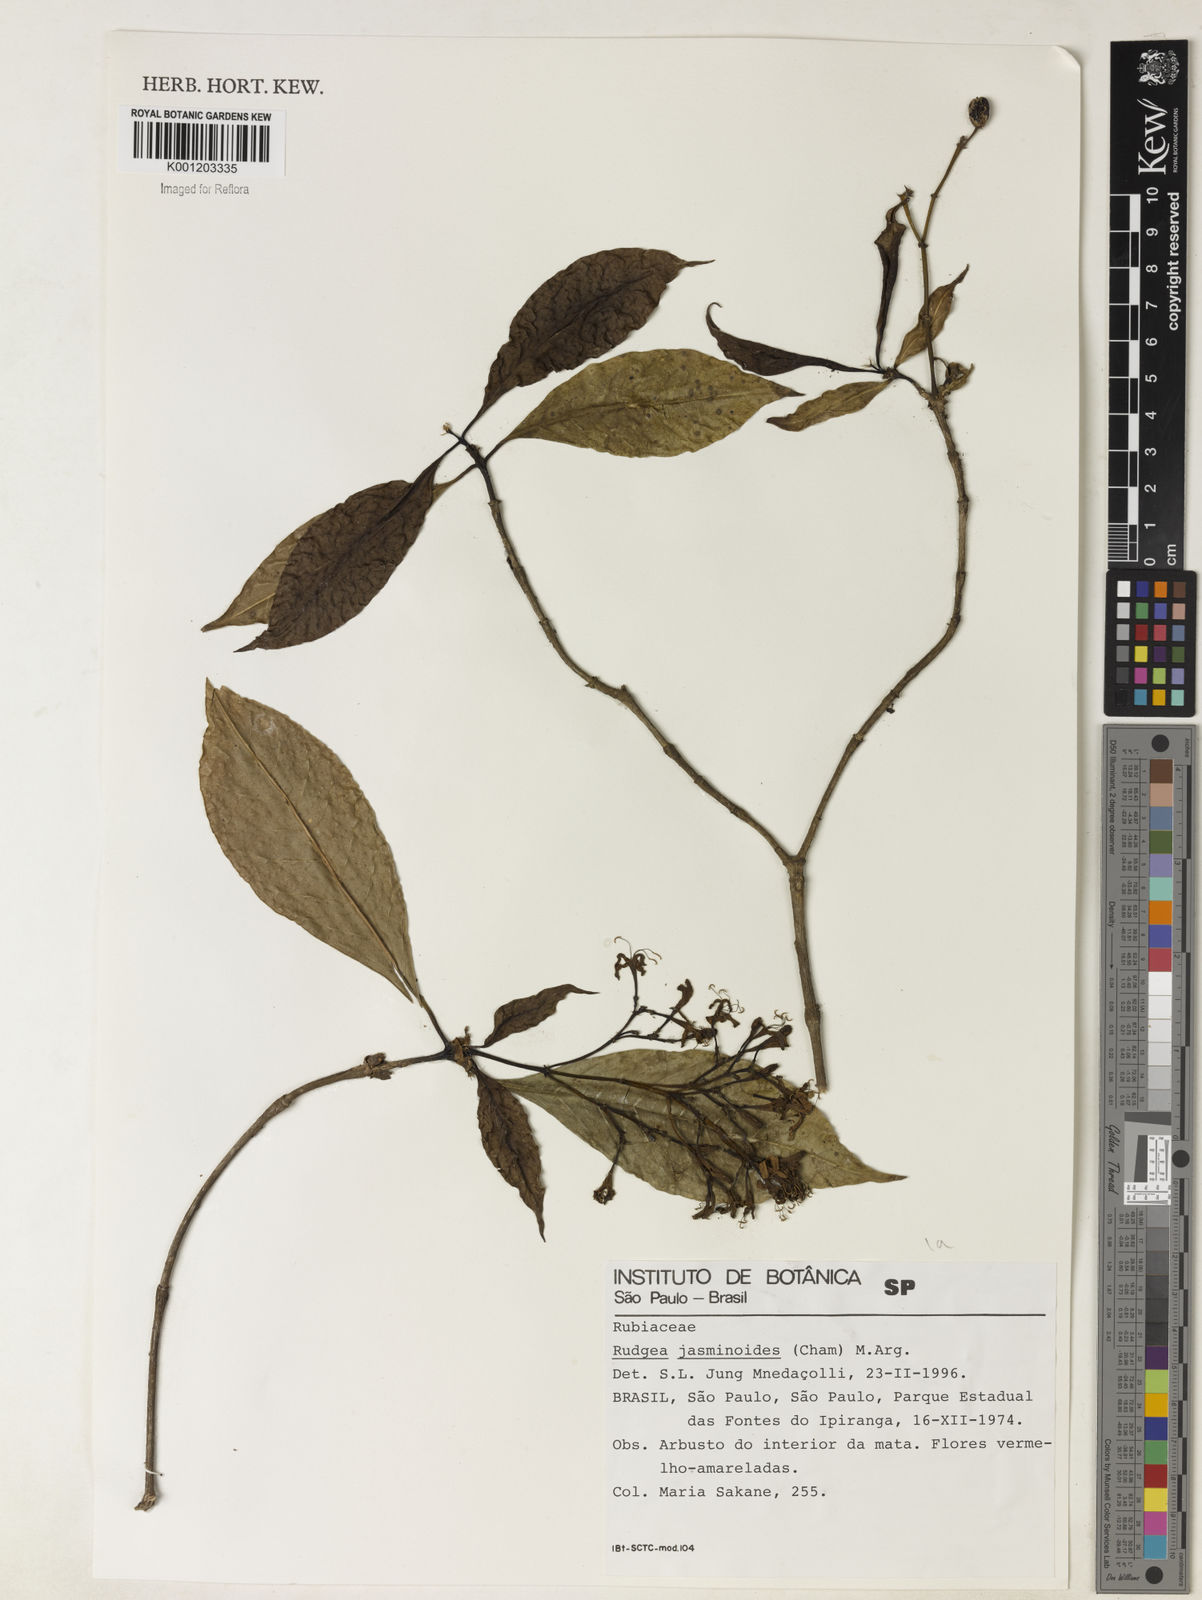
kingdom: Plantae
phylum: Tracheophyta
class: Magnoliopsida
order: Gentianales
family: Rubiaceae
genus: Rudgea
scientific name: Rudgea
